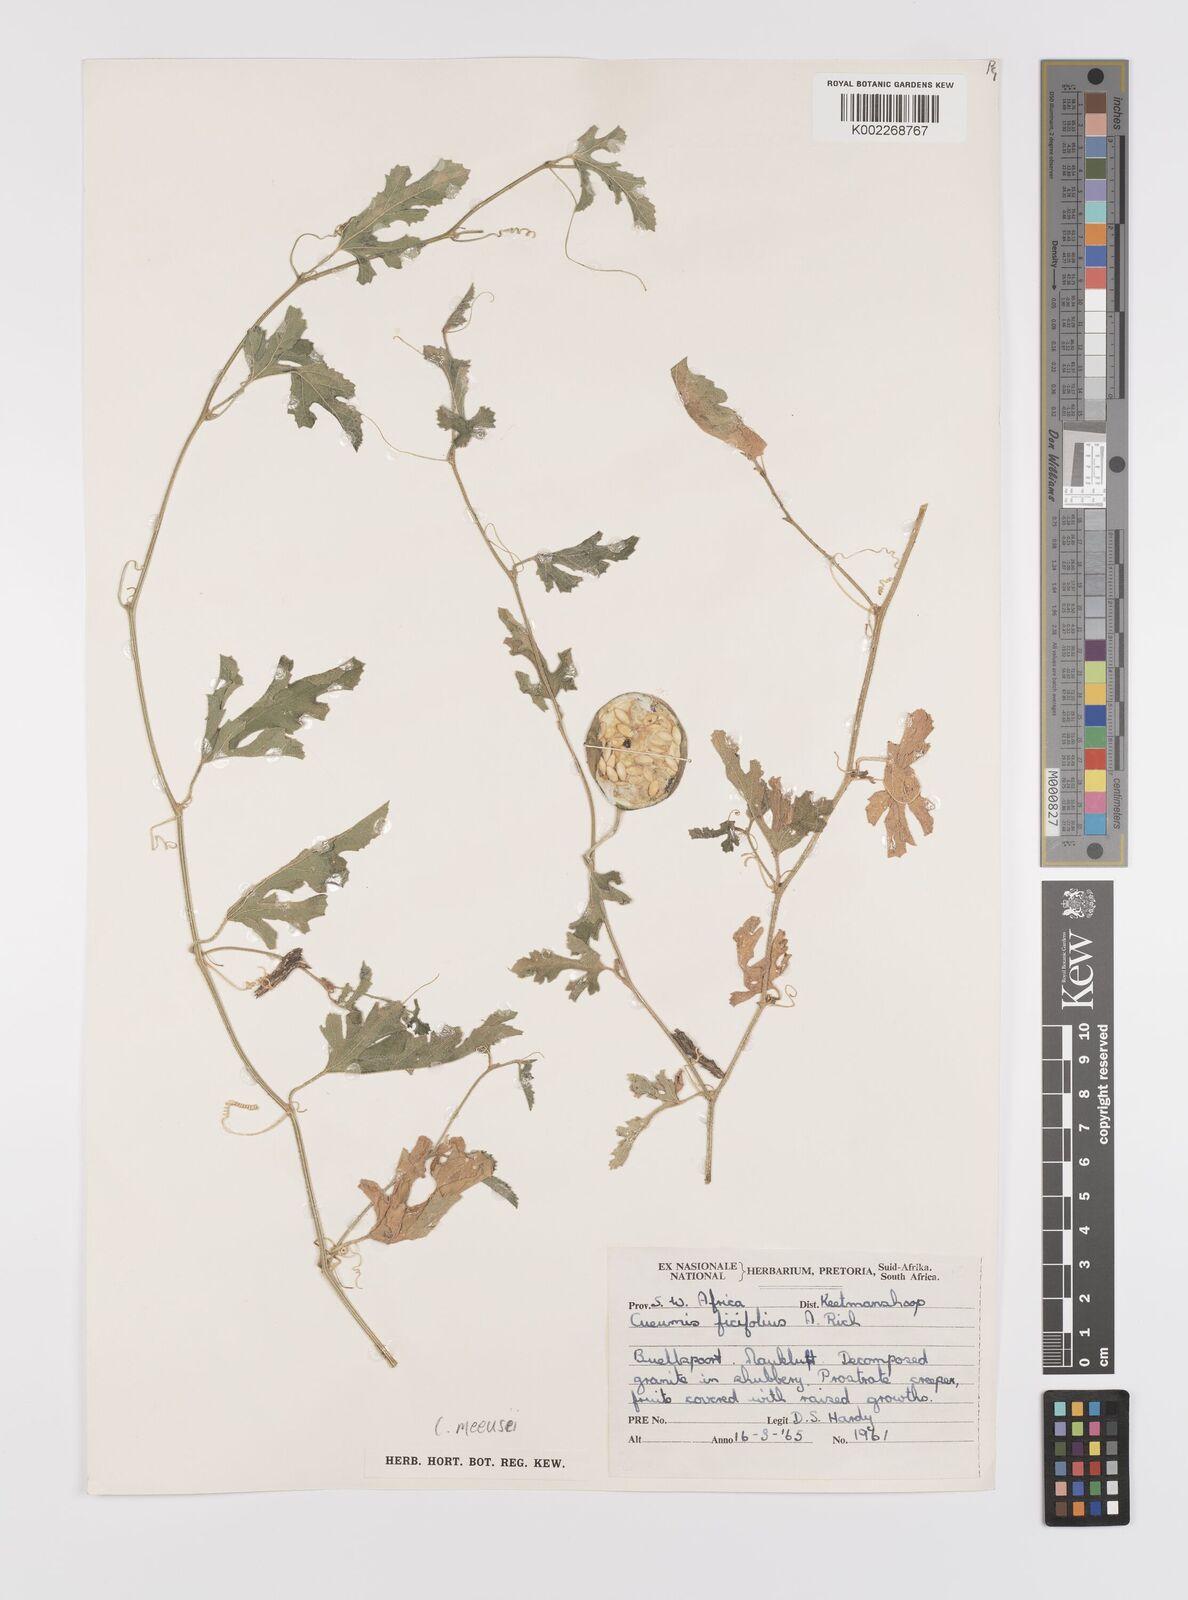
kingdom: Plantae
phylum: Tracheophyta
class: Magnoliopsida
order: Cucurbitales
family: Cucurbitaceae
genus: Cucumis
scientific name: Cucumis meeusei
